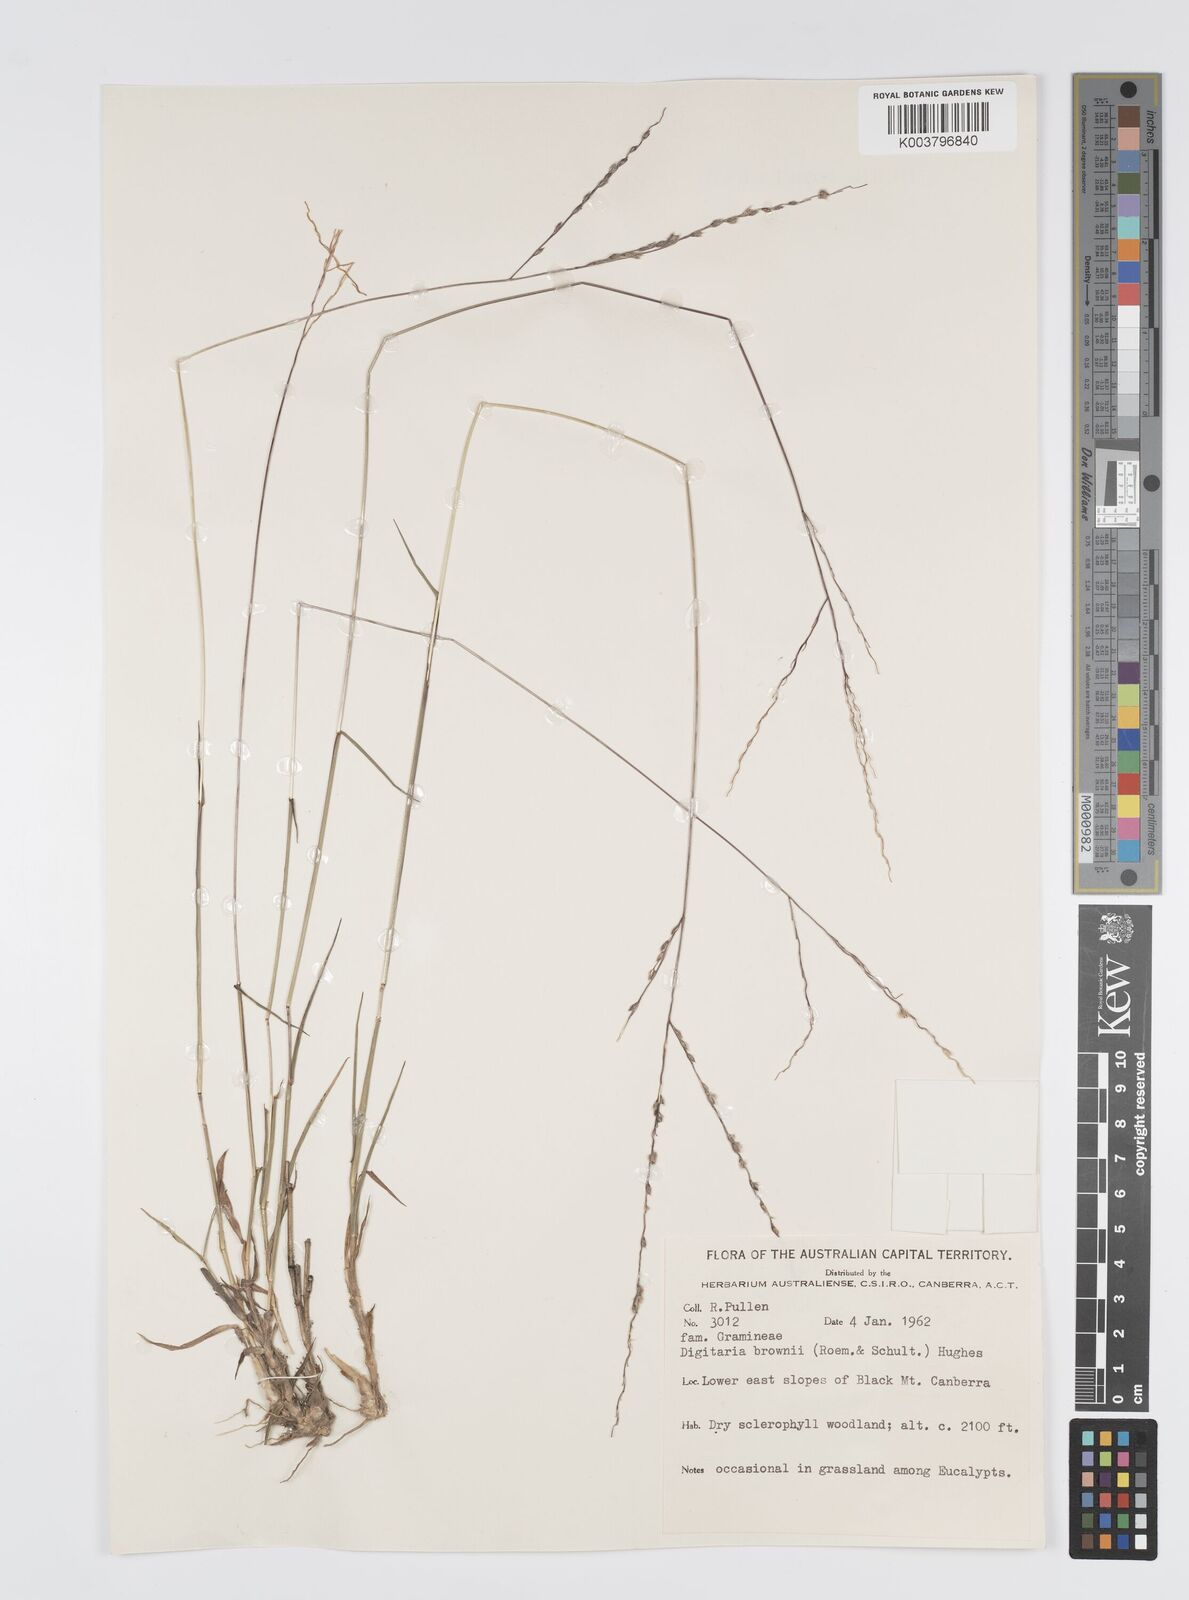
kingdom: Plantae
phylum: Tracheophyta
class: Liliopsida
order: Poales
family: Poaceae
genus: Digitaria
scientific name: Digitaria brownii
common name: Cotton grass
